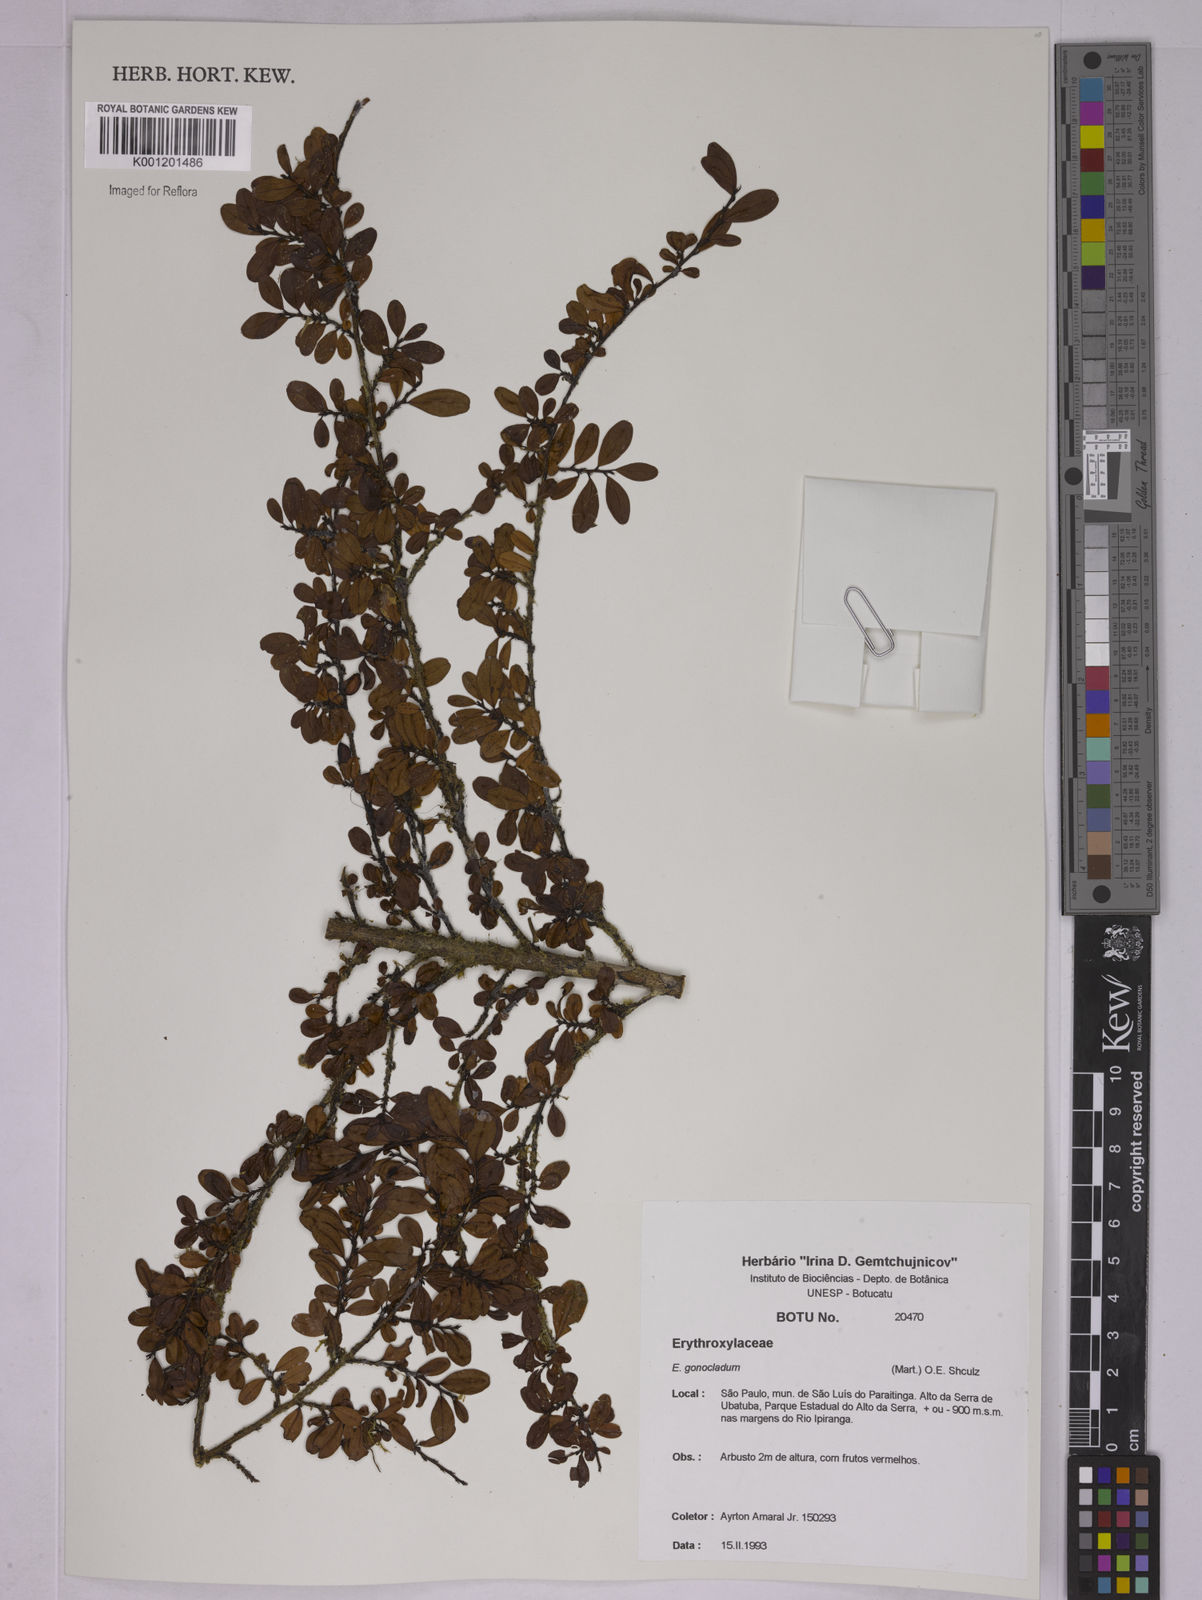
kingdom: Plantae
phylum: Tracheophyta
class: Magnoliopsida
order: Malpighiales
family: Erythroxylaceae
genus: Erythroxylum
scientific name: Erythroxylum
